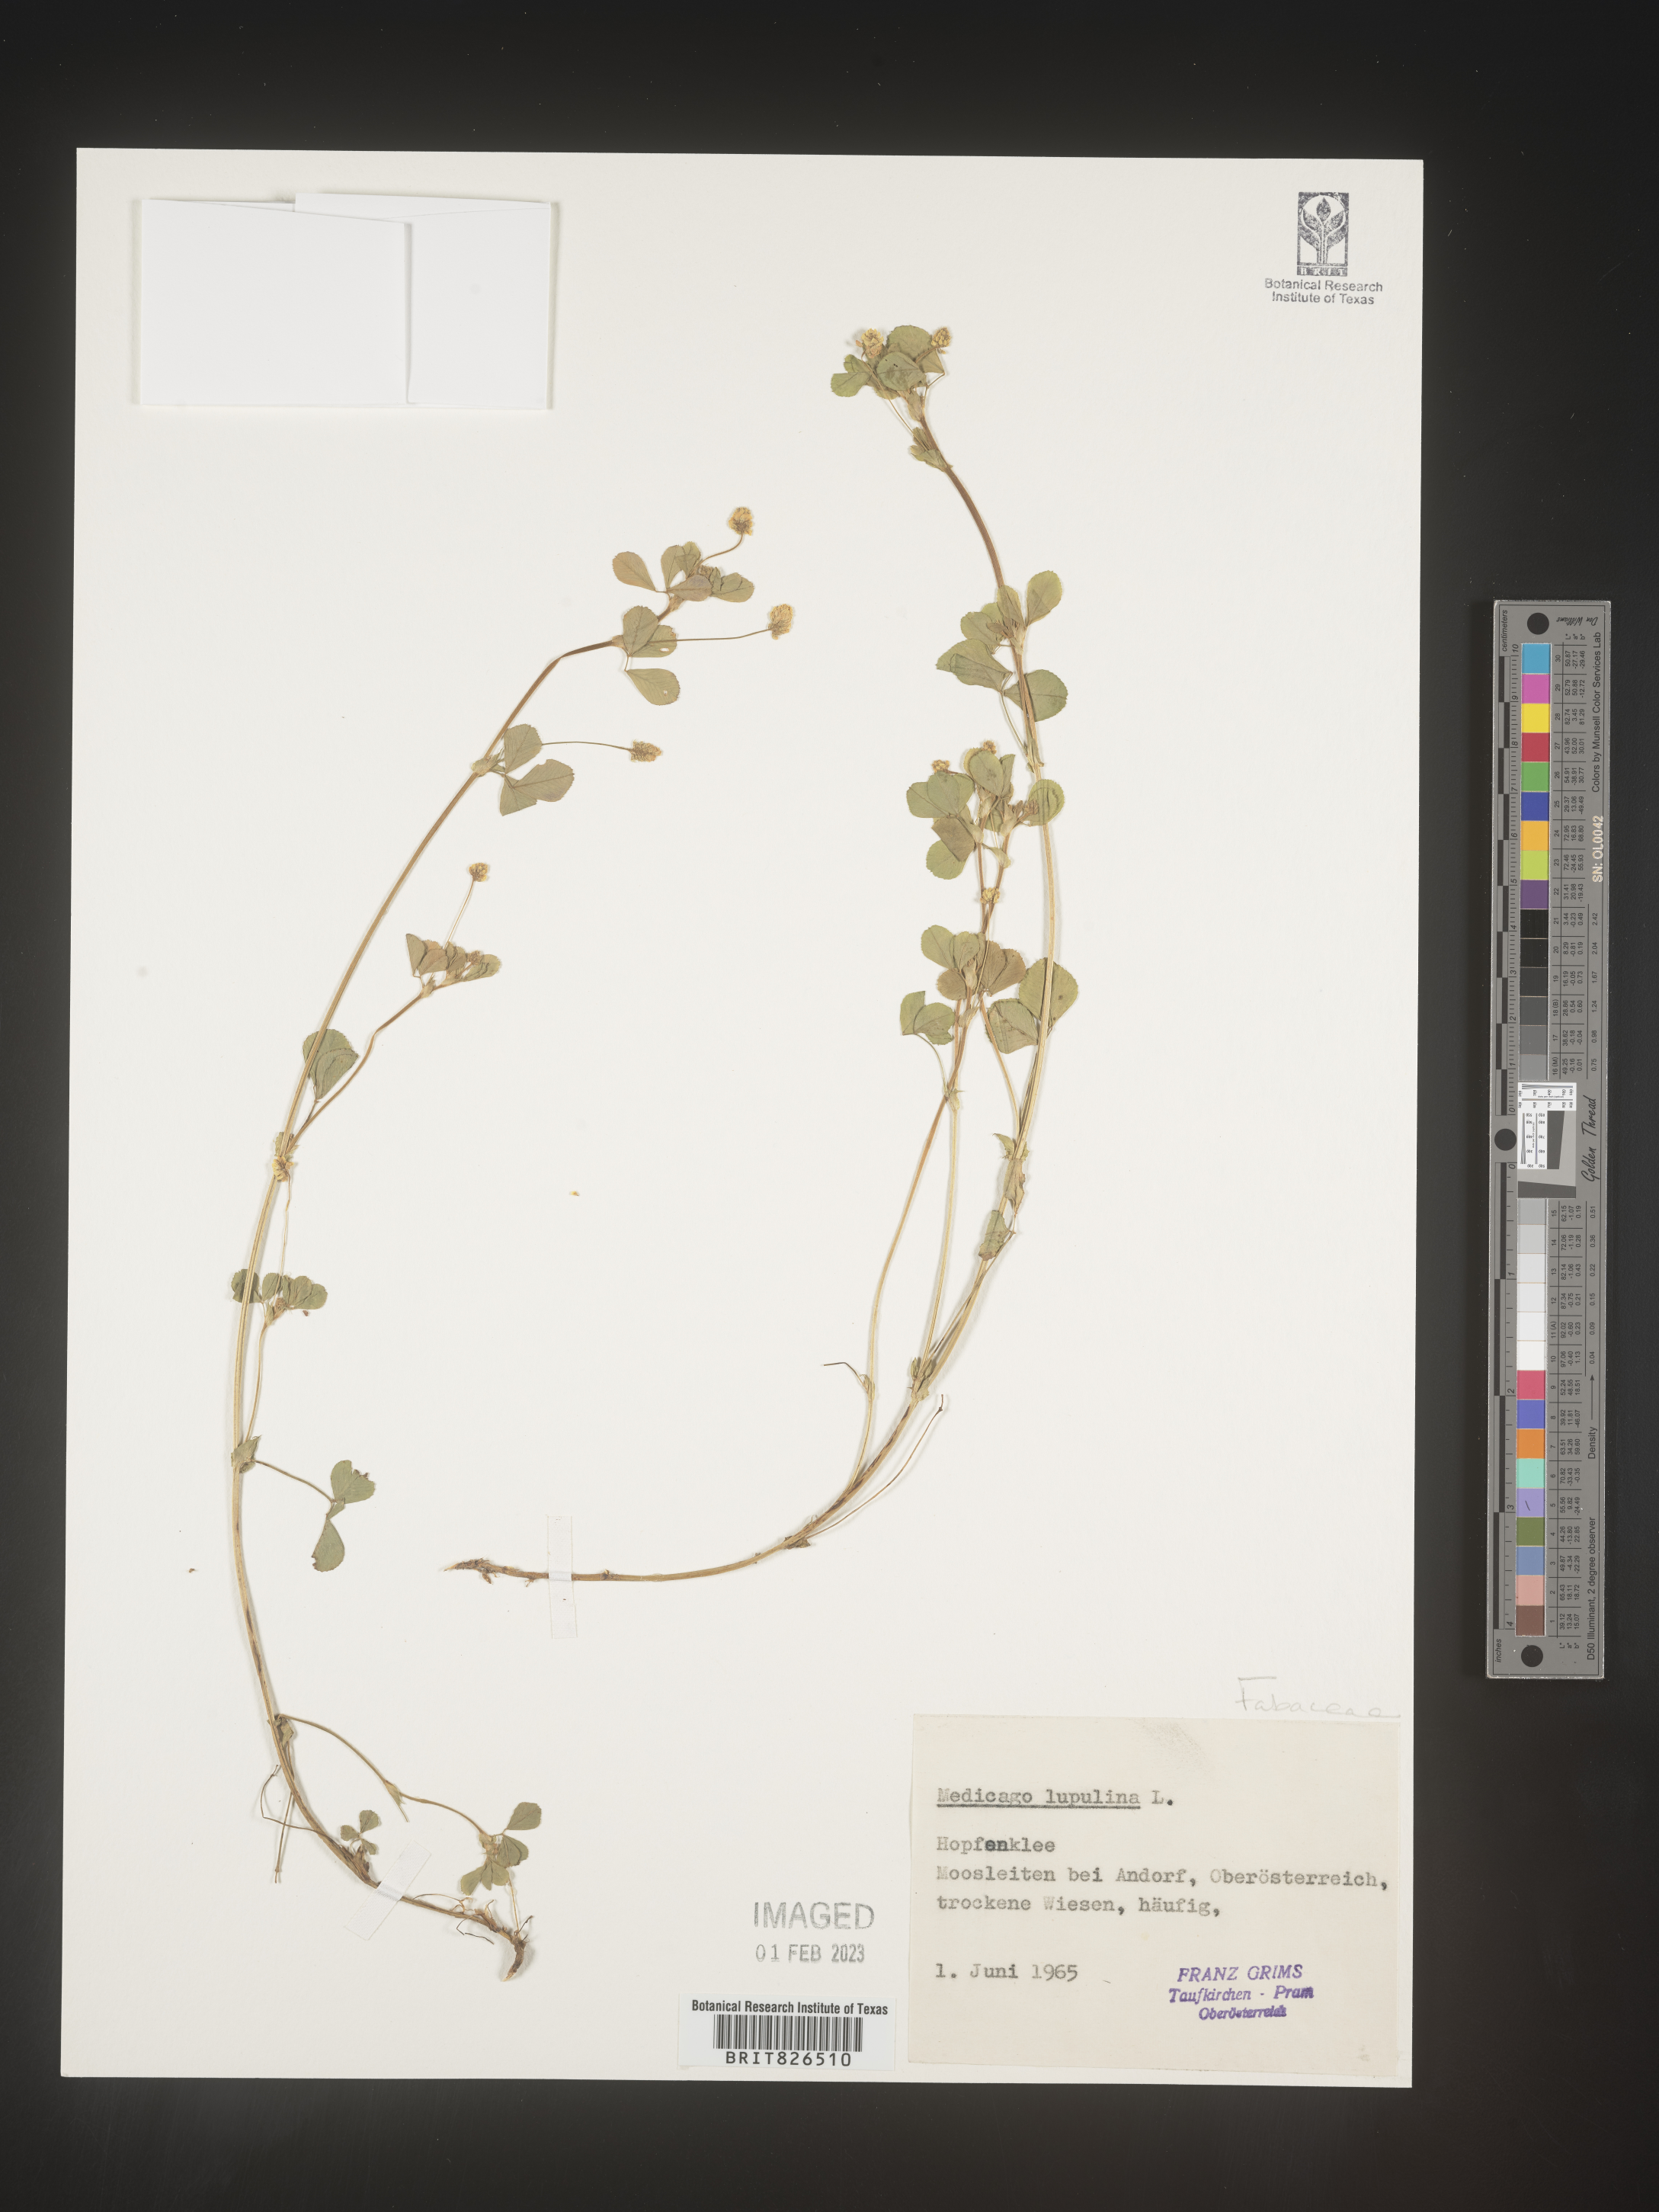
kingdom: Plantae
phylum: Tracheophyta
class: Magnoliopsida
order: Fabales
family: Fabaceae
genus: Medicago
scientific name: Medicago
